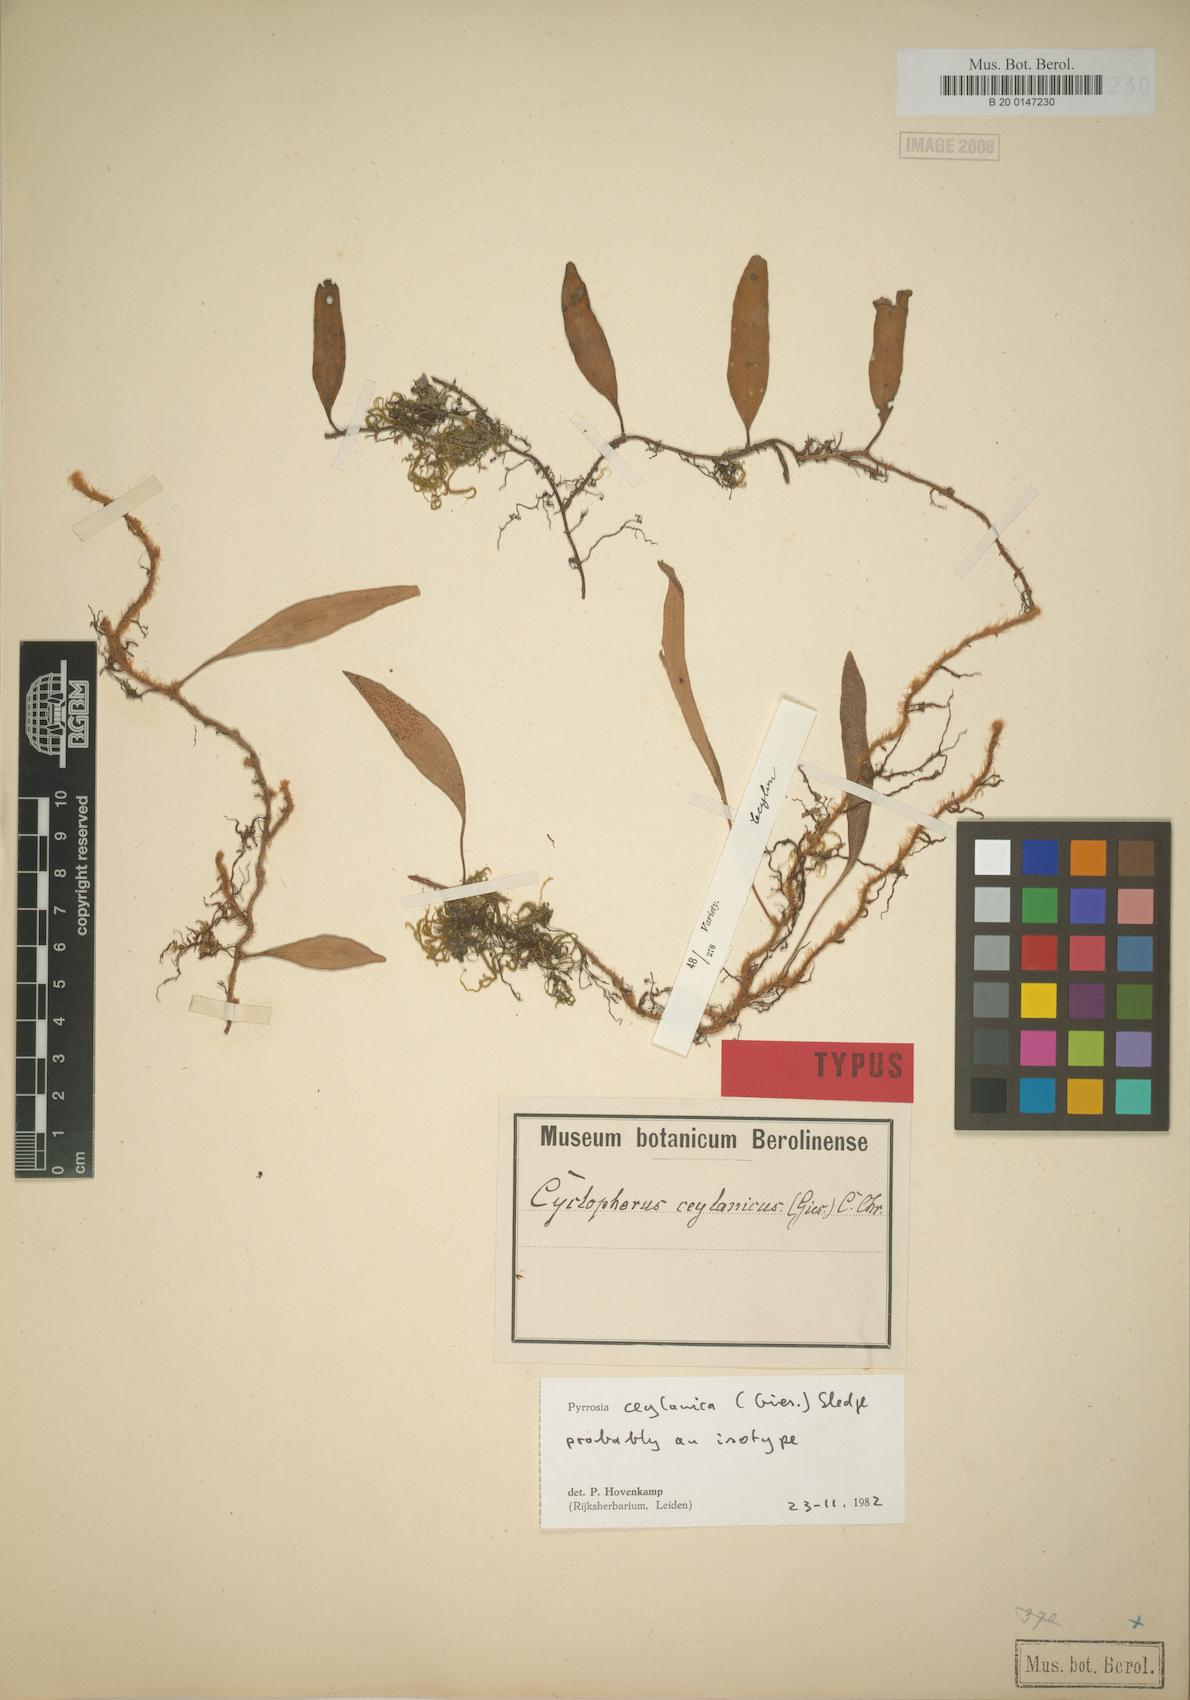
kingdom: Plantae
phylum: Tracheophyta
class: Polypodiopsida
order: Polypodiales
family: Polypodiaceae
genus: Pyrrosia
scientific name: Pyrrosia ceylanica
